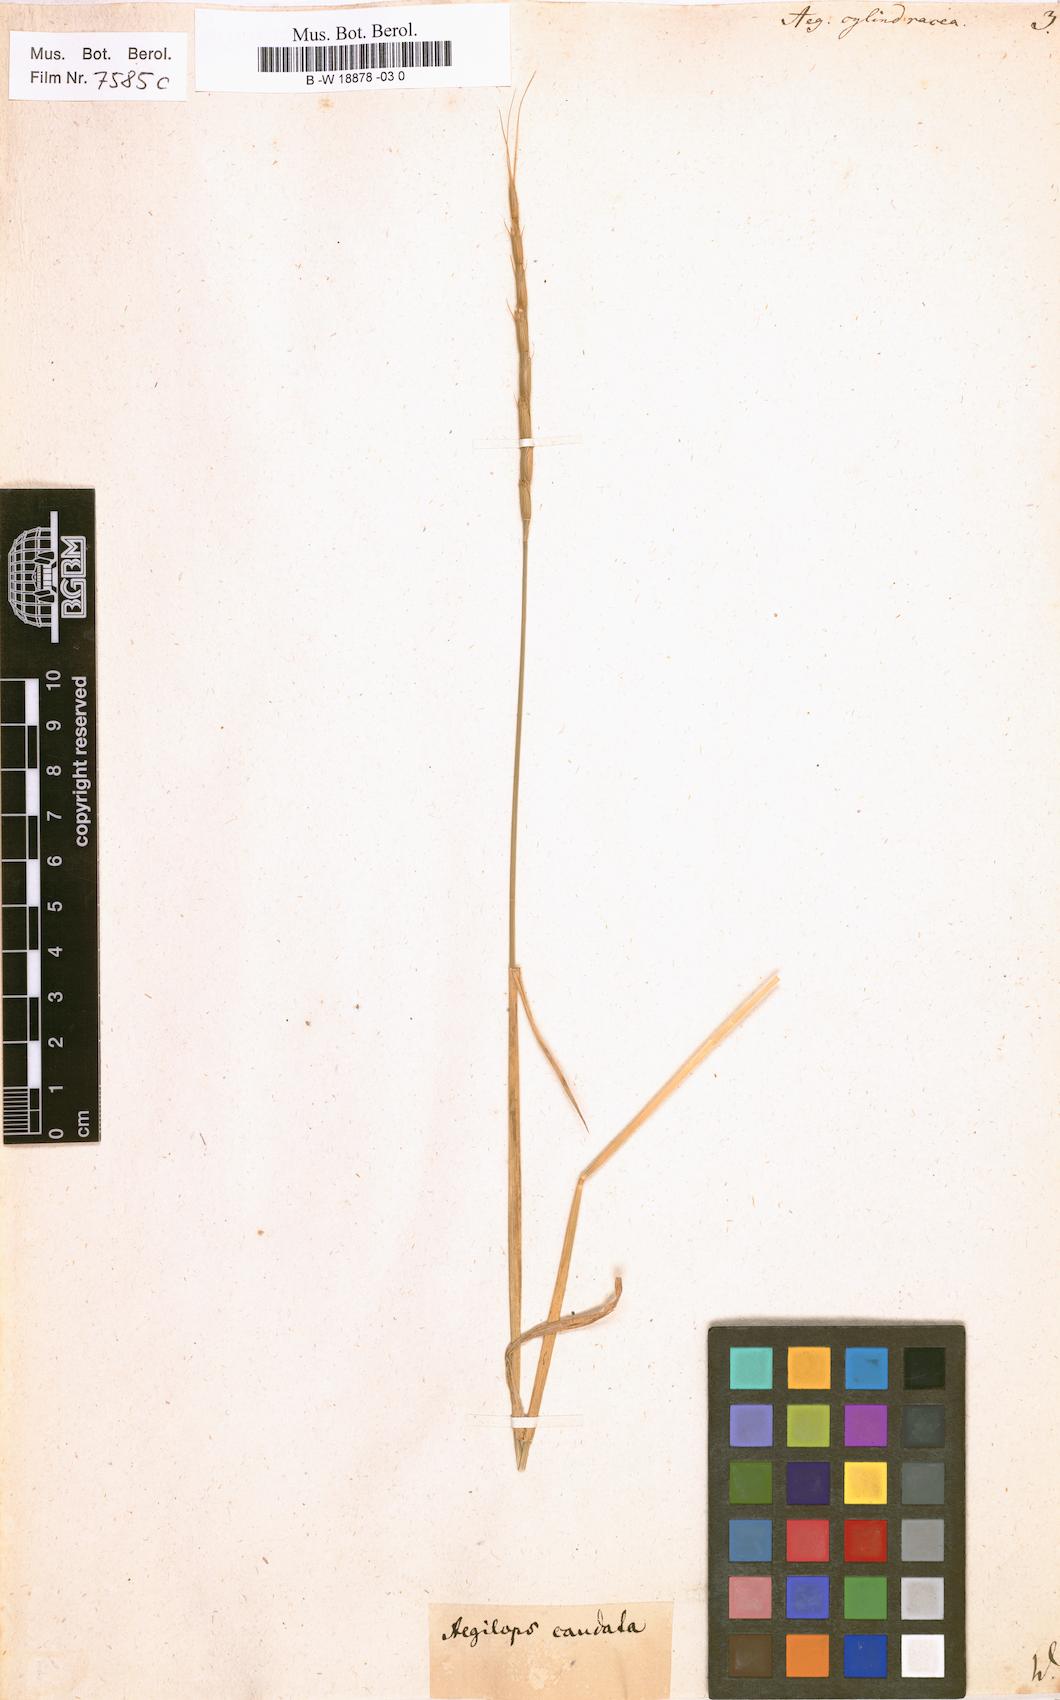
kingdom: Plantae
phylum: Tracheophyta
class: Liliopsida
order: Poales
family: Poaceae
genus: Aegilops
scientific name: Aegilops cylindrica
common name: Jointed goatgrass
